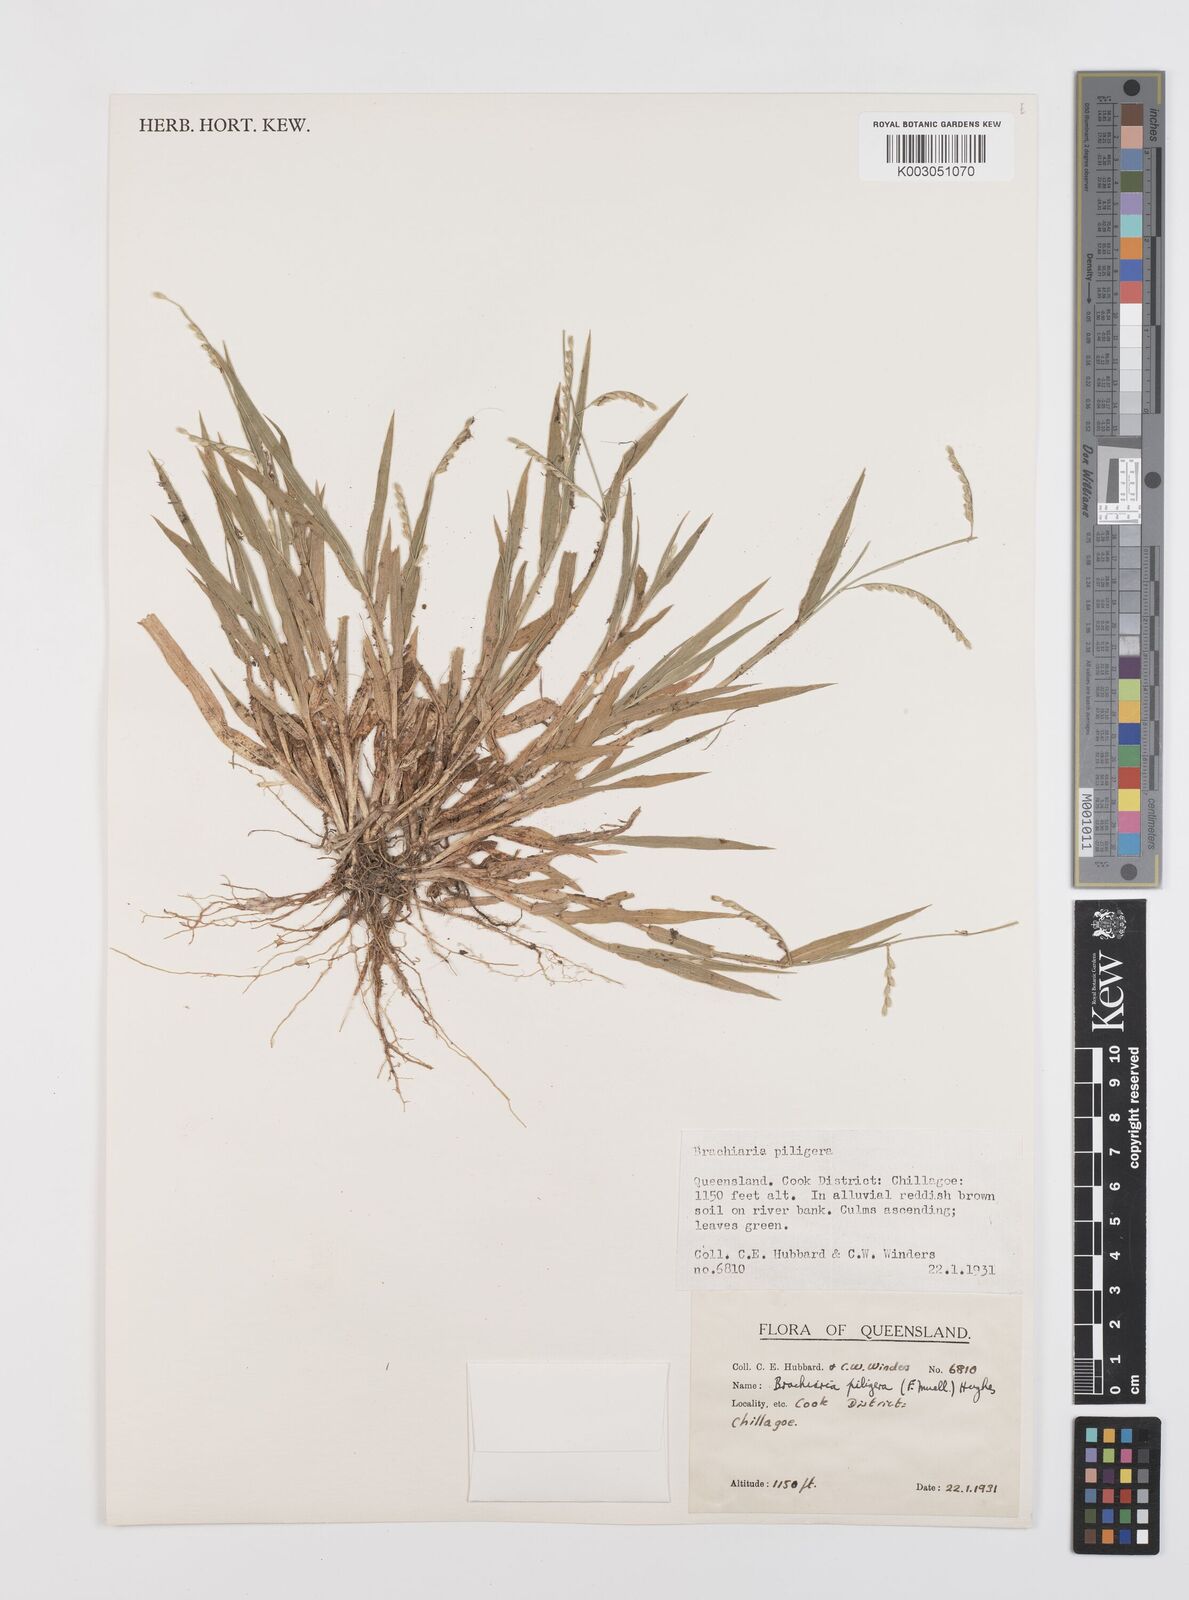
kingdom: Plantae
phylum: Tracheophyta
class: Liliopsida
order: Poales
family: Poaceae
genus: Urochloa
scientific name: Urochloa piligera
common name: Wattle signalgrass
